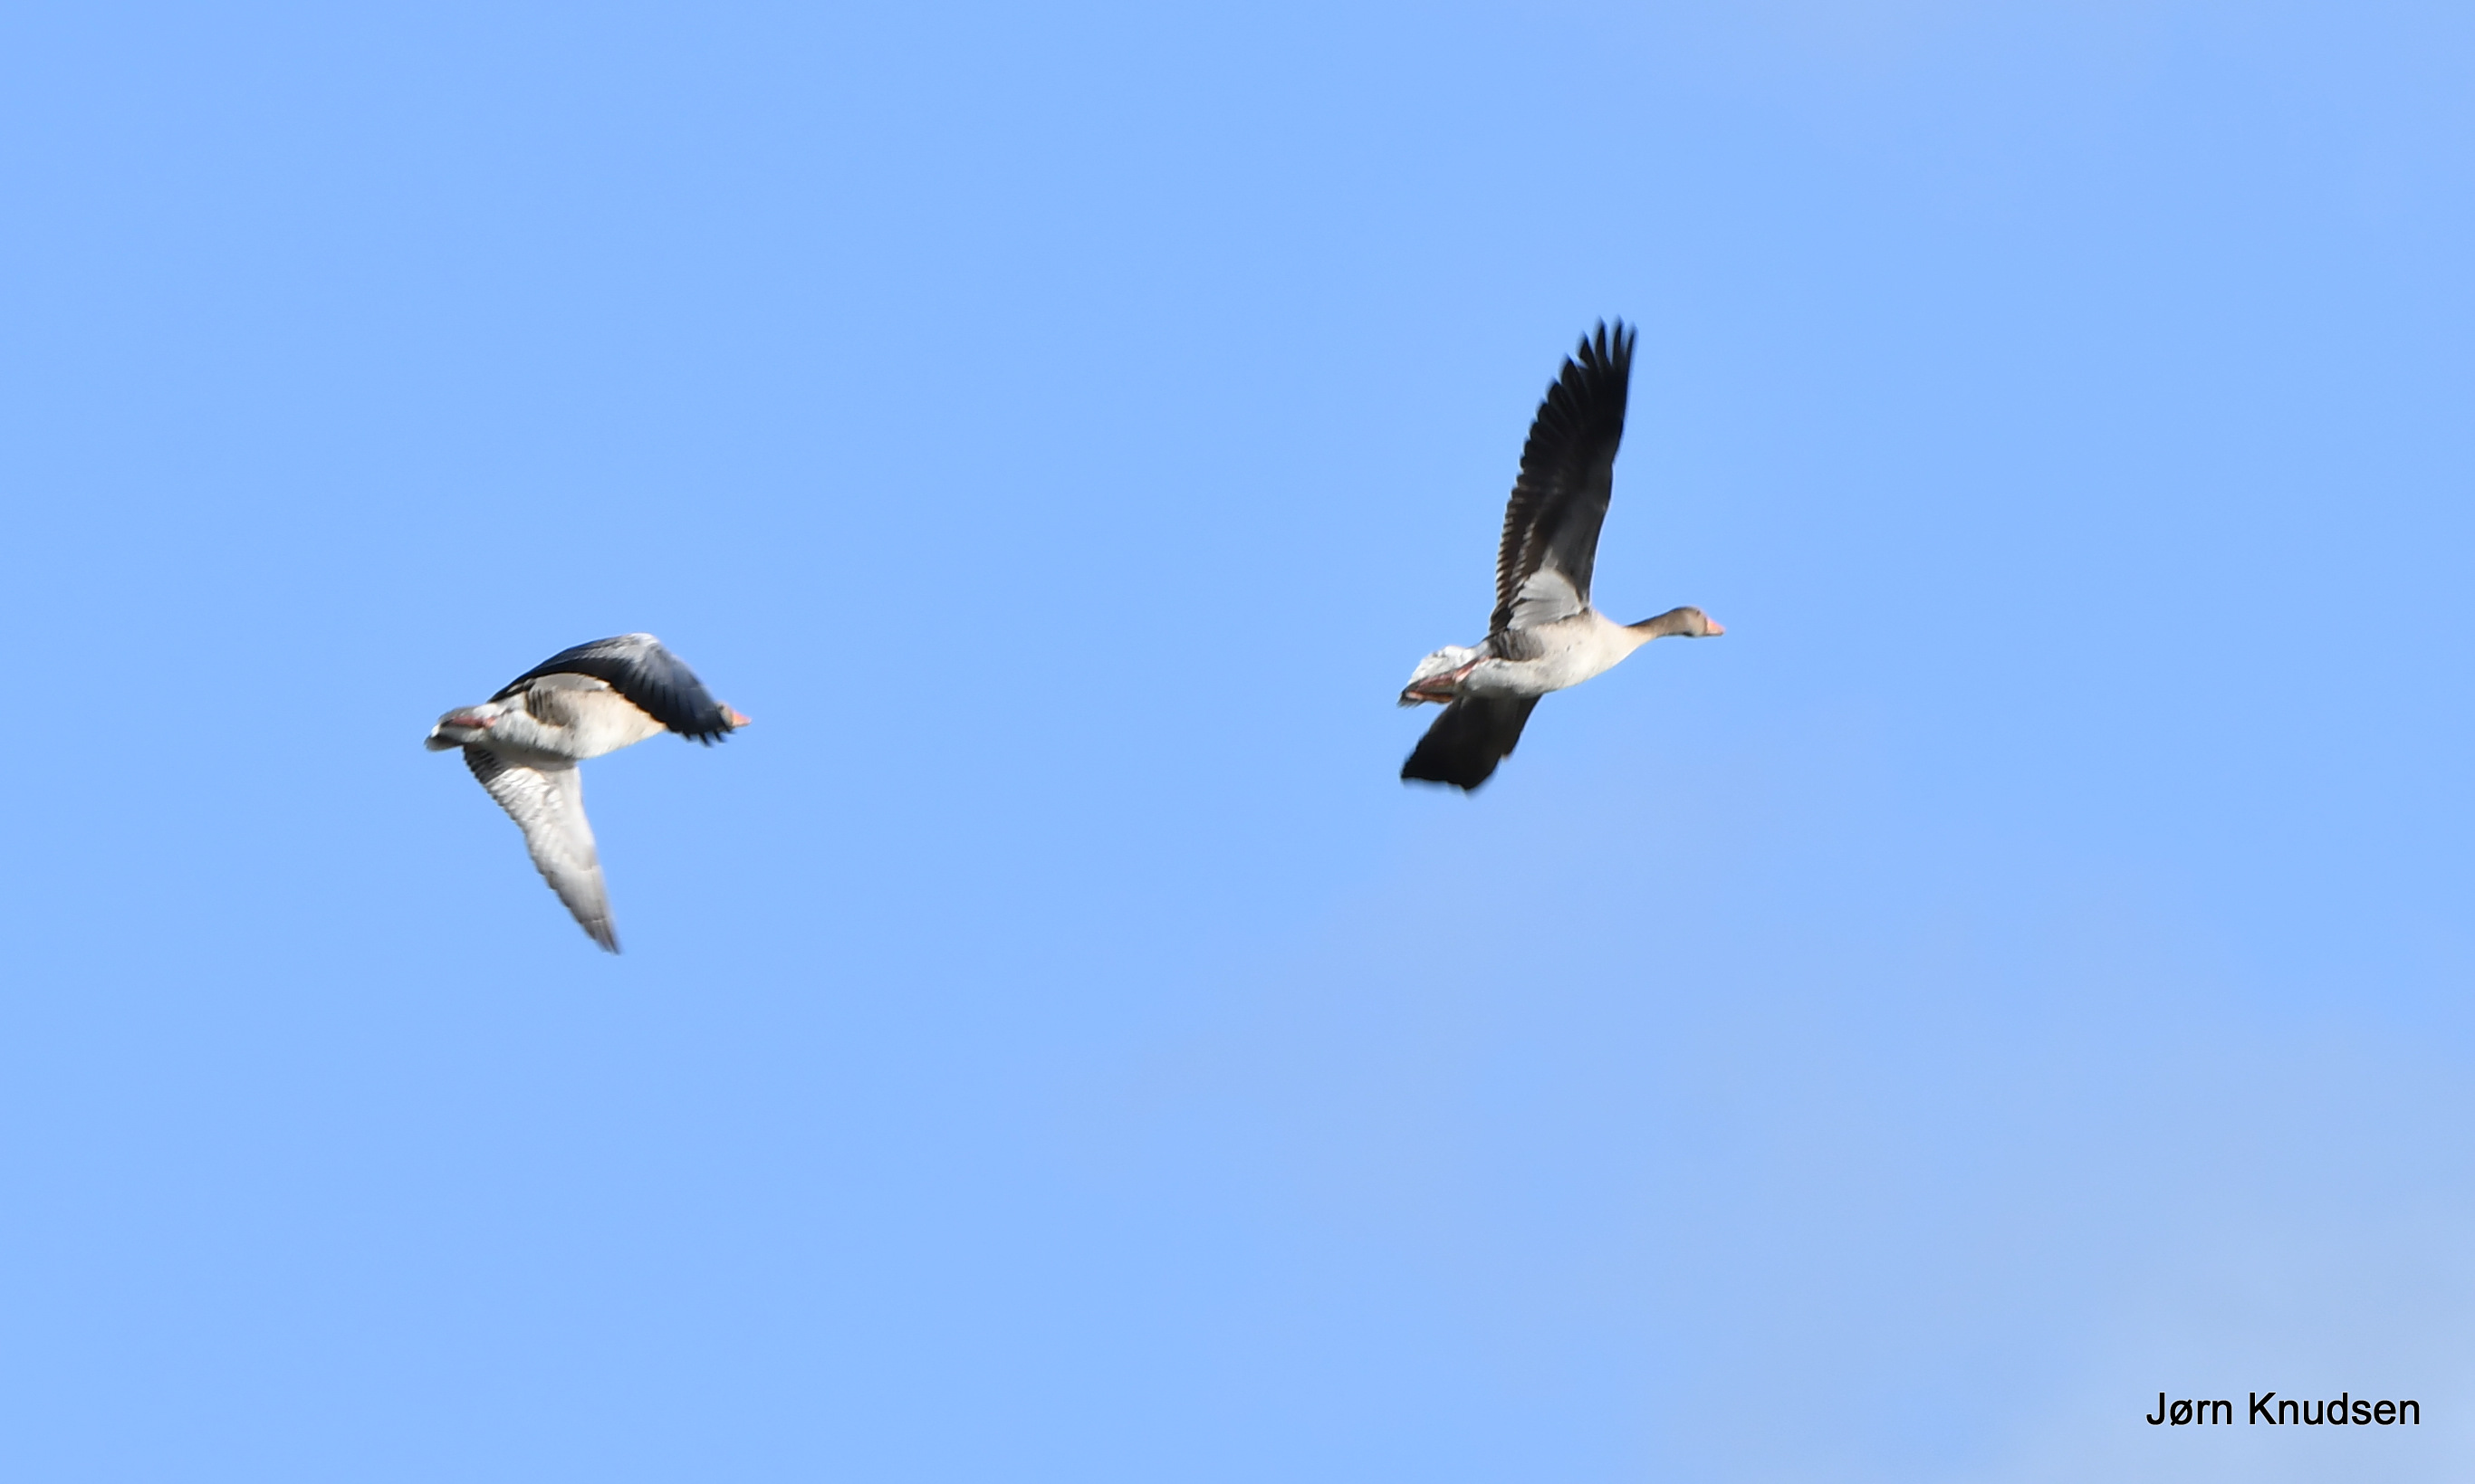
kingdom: Animalia
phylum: Chordata
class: Aves
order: Anseriformes
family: Anatidae
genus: Anser
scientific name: Anser anser
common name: Grågås
